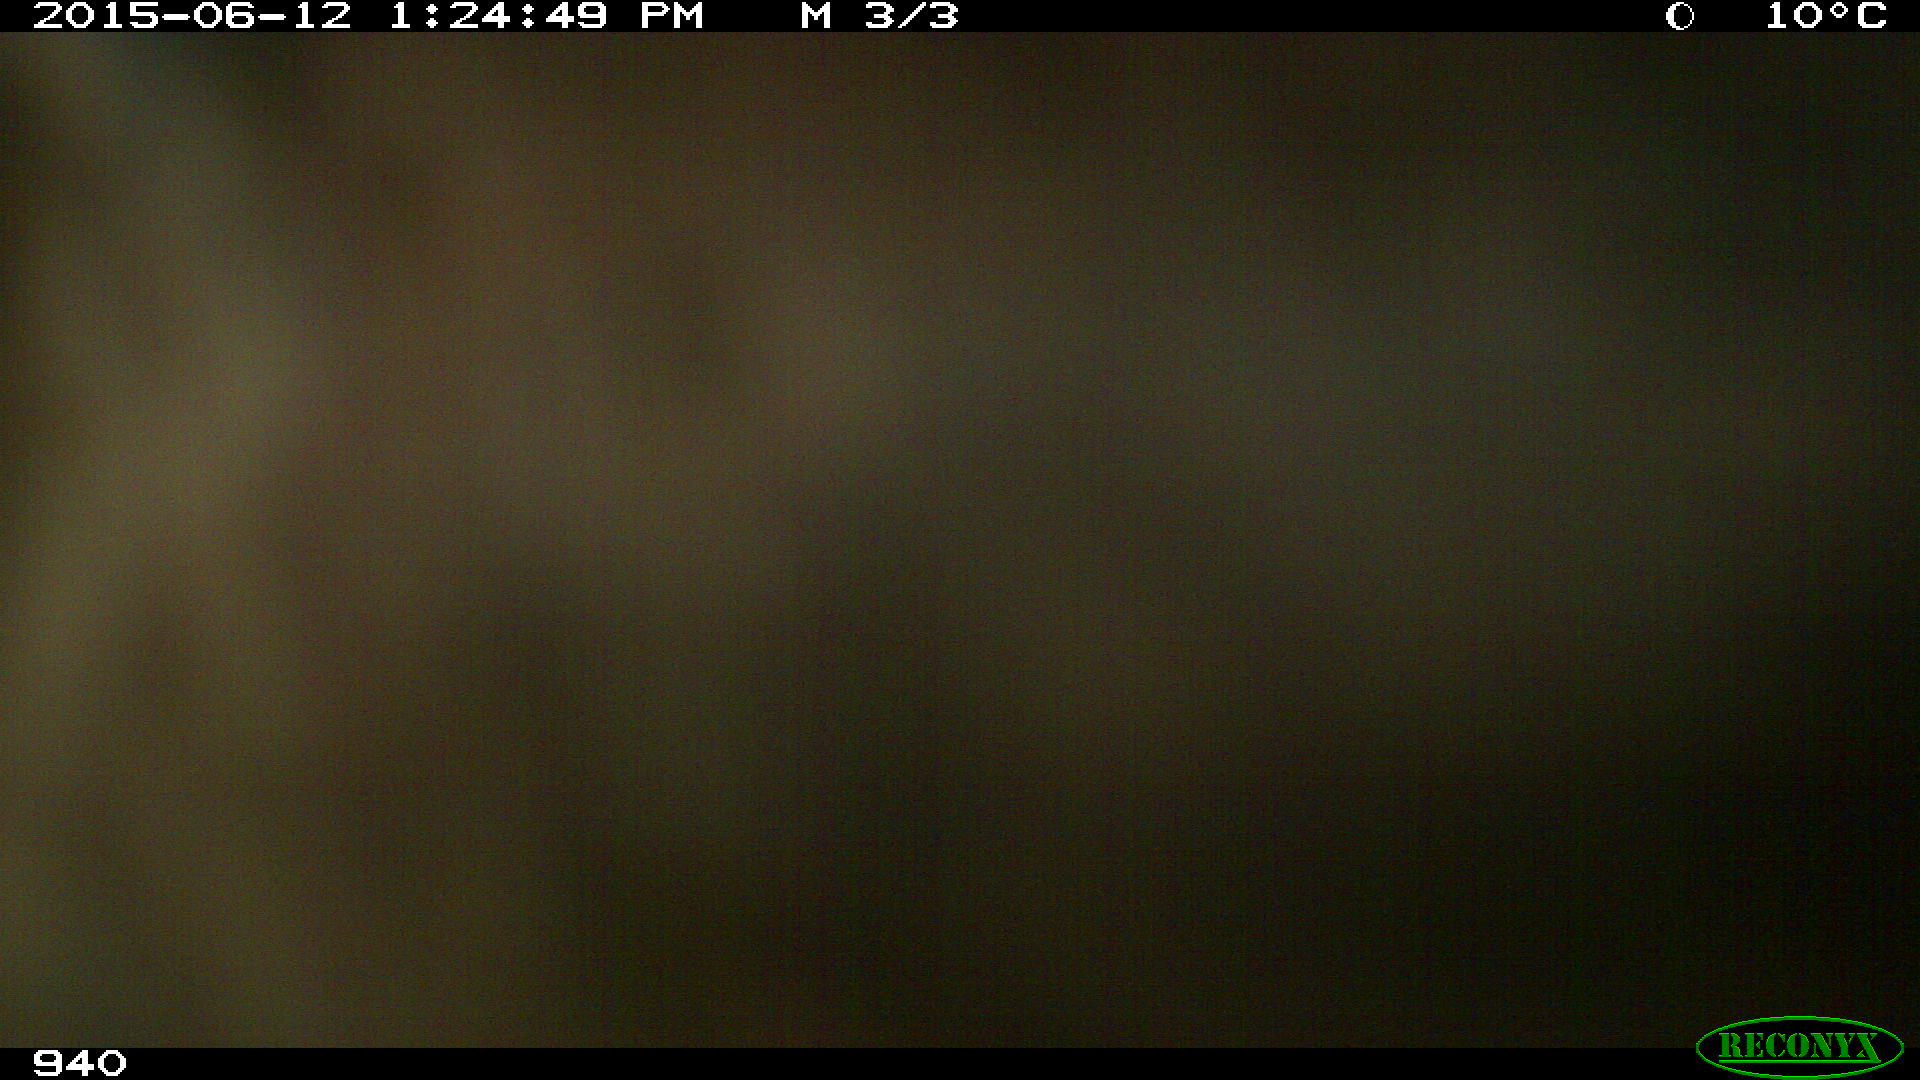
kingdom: Animalia
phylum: Chordata
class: Mammalia
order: Perissodactyla
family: Equidae
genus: Equus
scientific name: Equus caballus
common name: Horse
